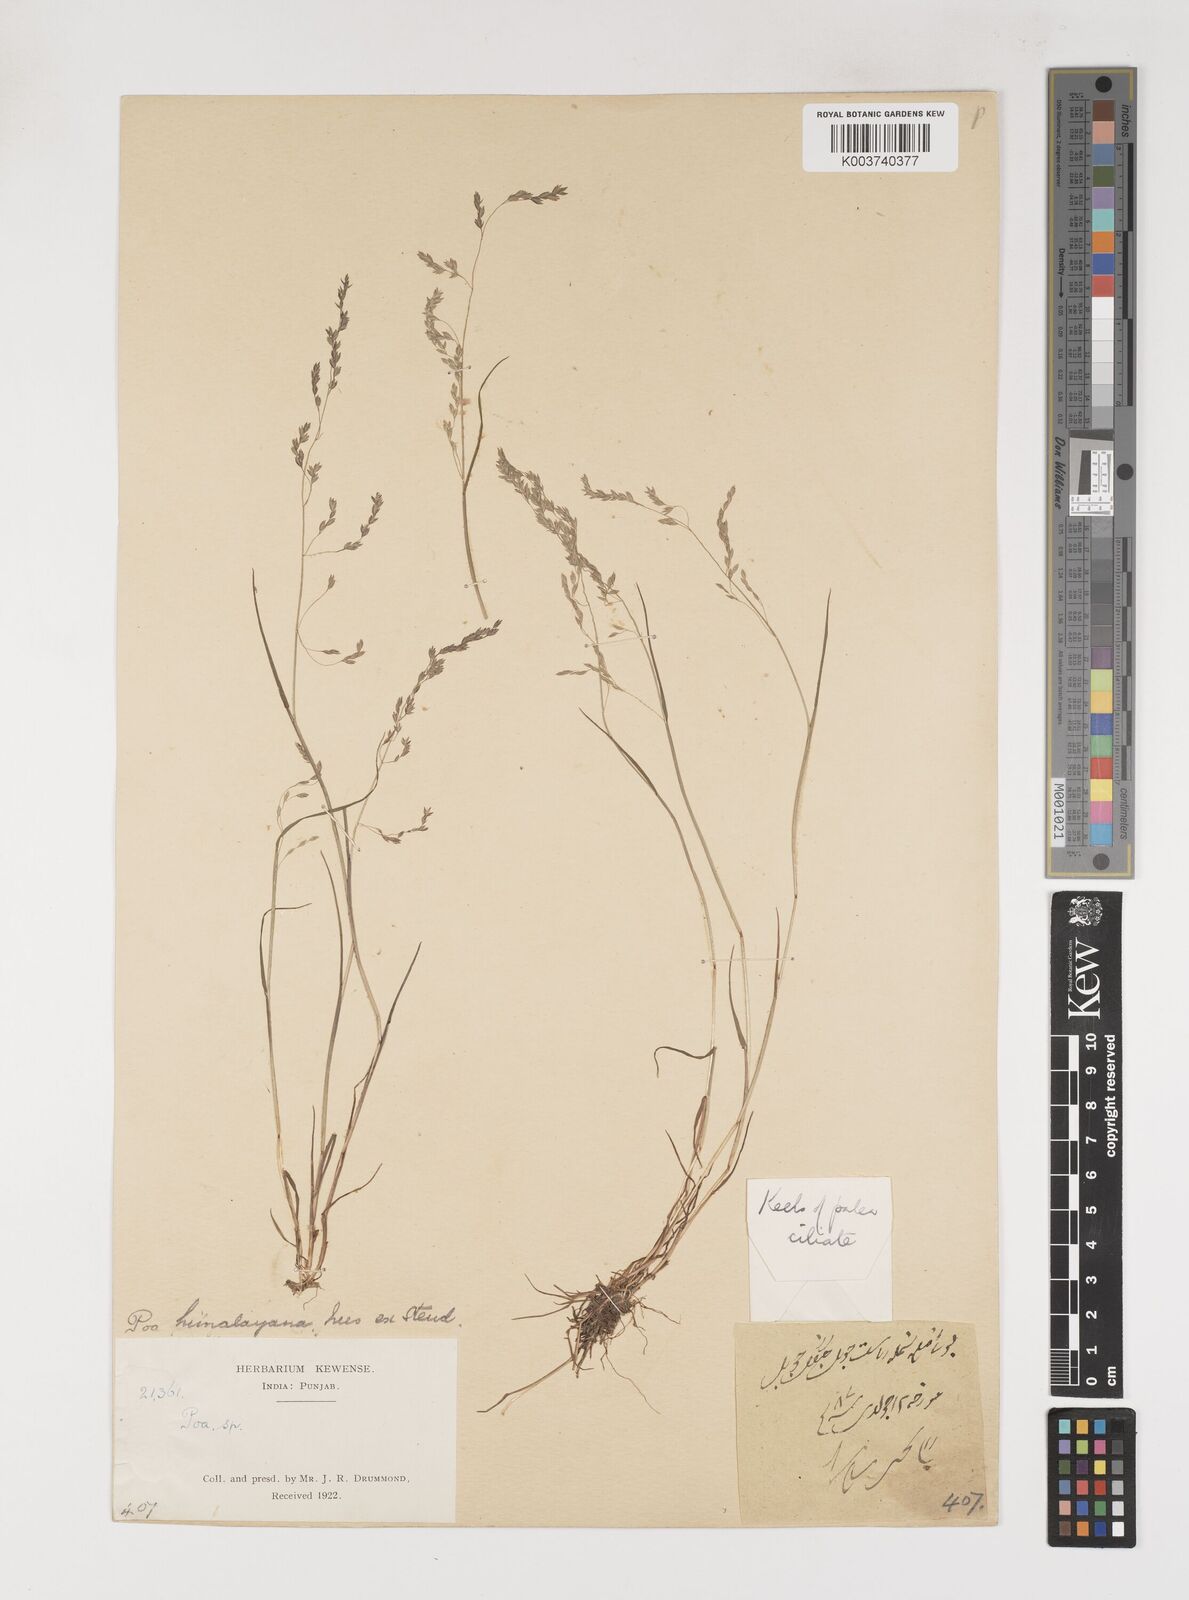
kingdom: Plantae
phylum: Tracheophyta
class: Liliopsida
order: Poales
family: Poaceae
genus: Poa
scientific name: Poa stewartiana
